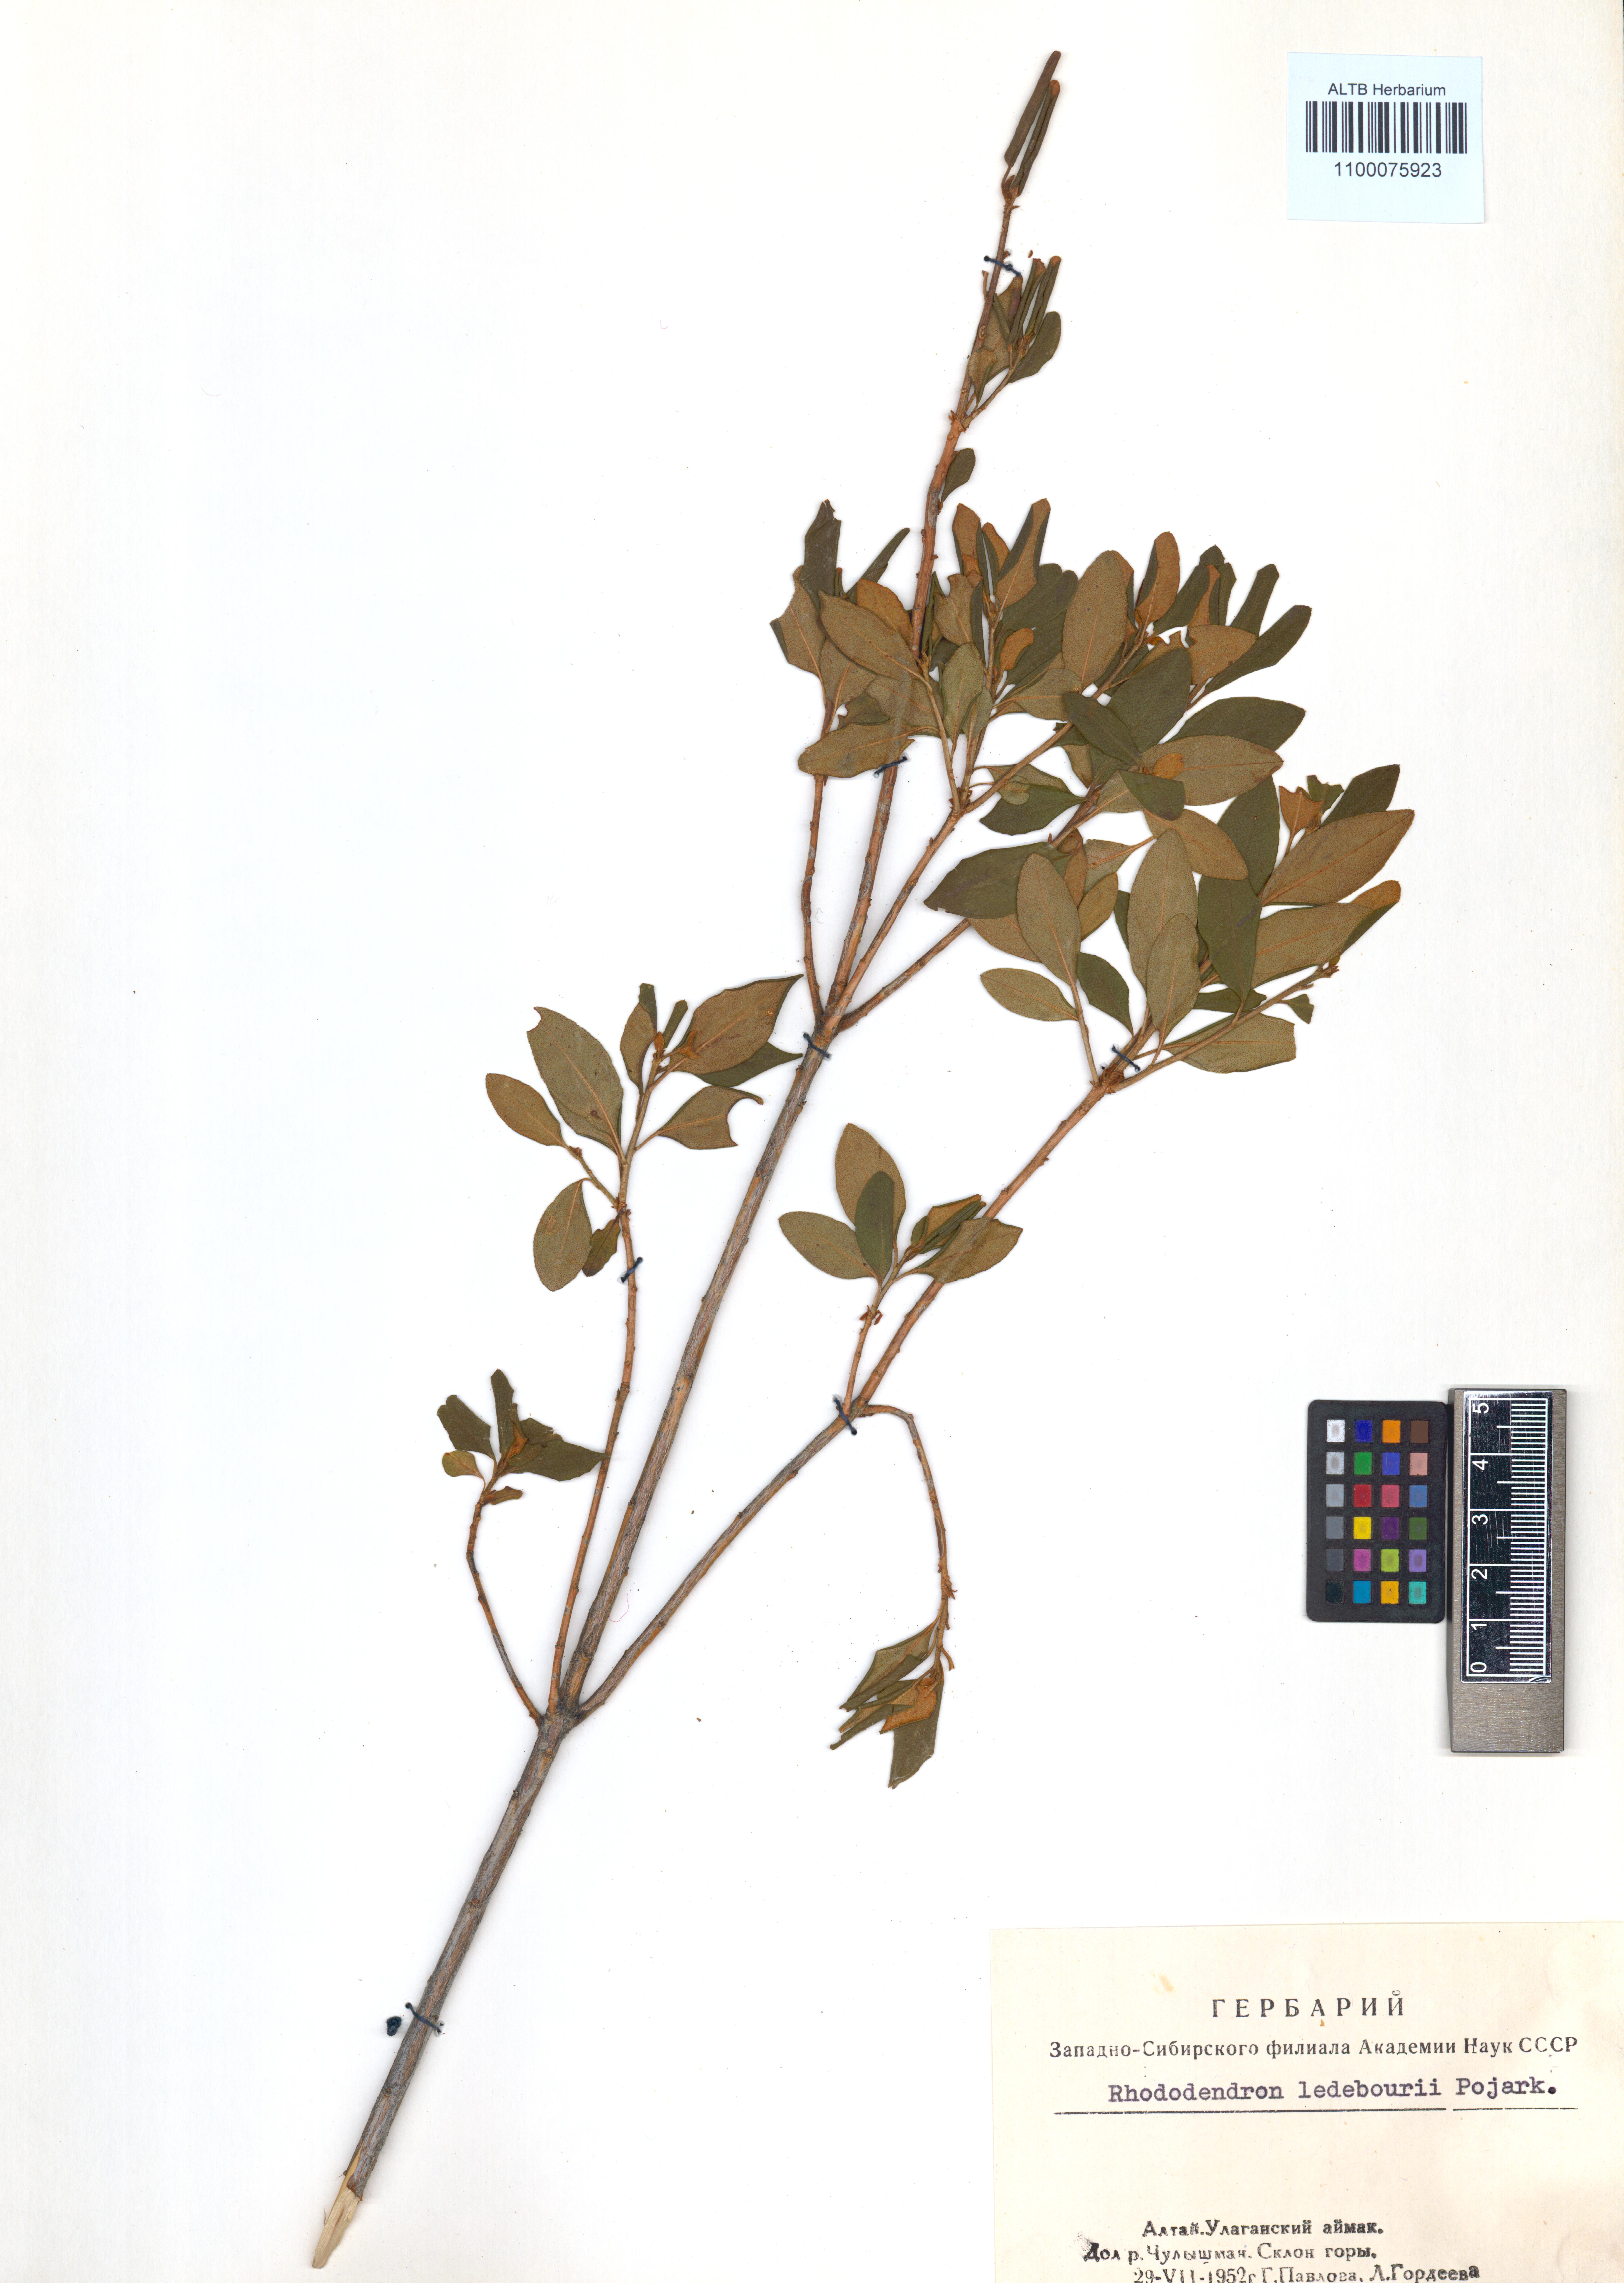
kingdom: Plantae
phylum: Tracheophyta
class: Magnoliopsida
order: Ericales
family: Ericaceae
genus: Rhododendron
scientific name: Rhododendron dauricum
